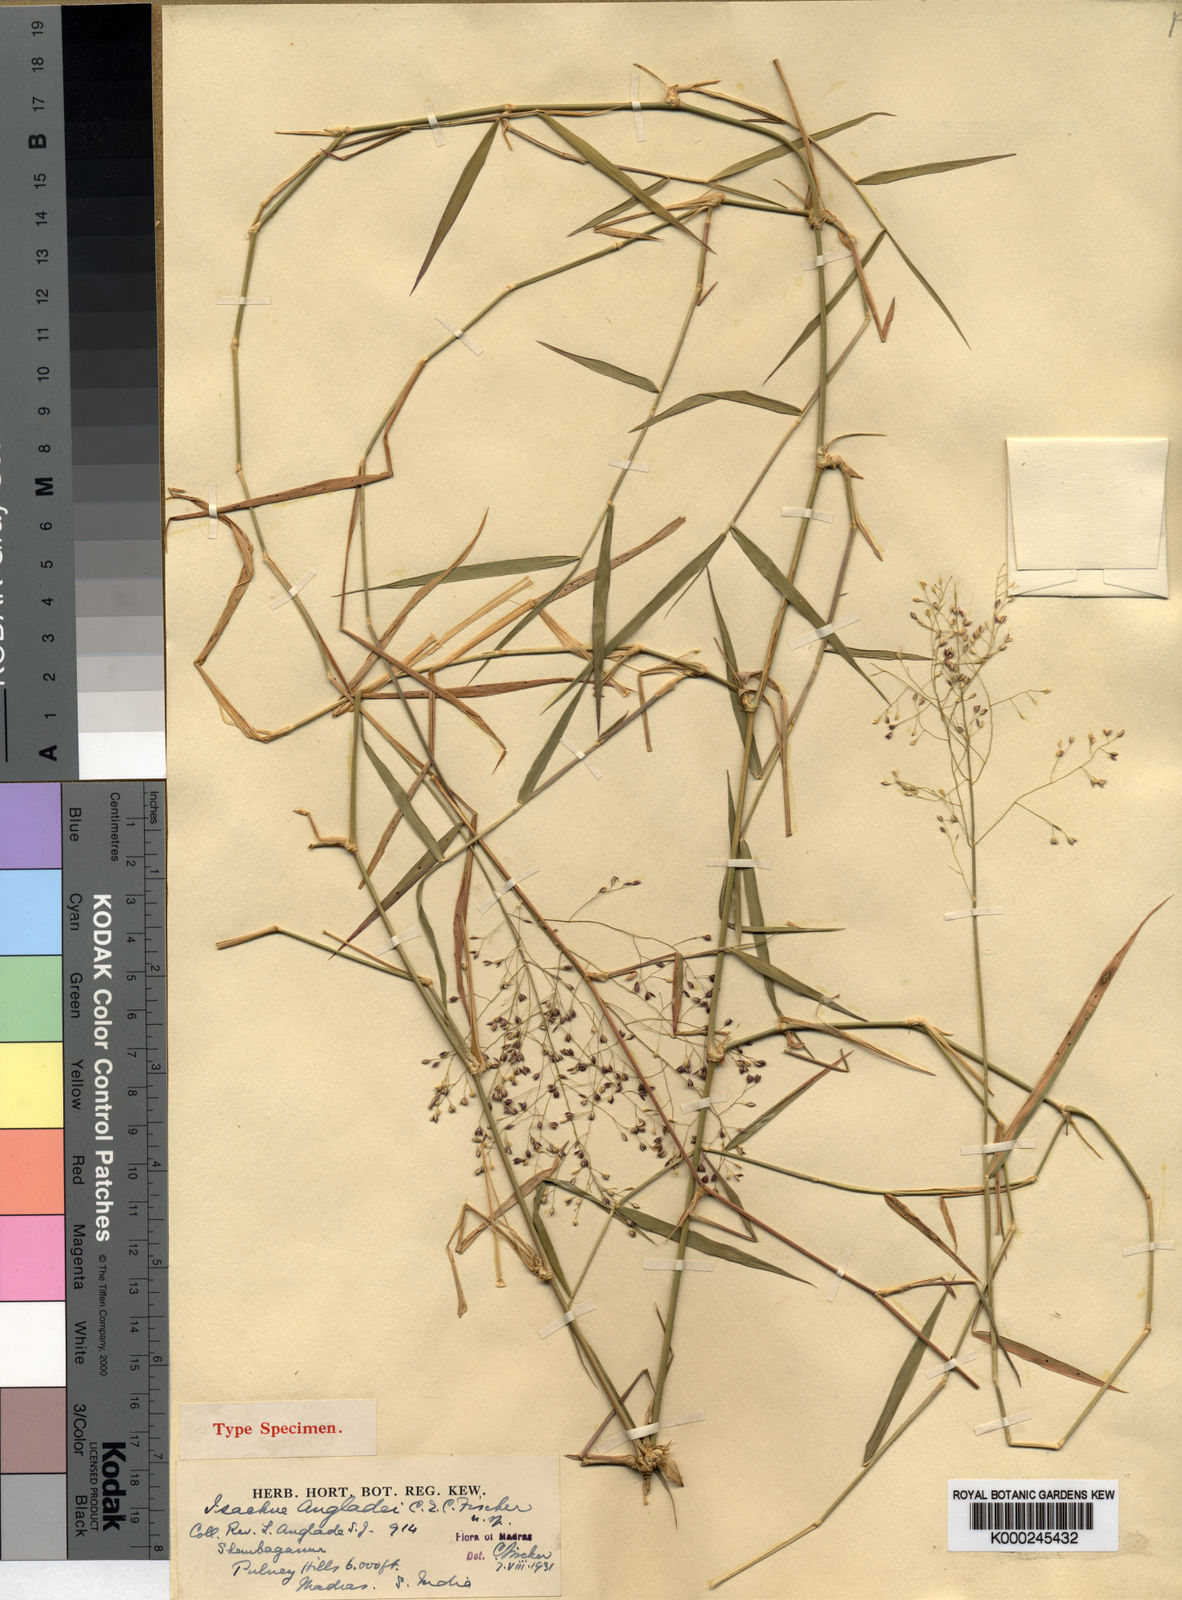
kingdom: Plantae
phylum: Tracheophyta
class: Liliopsida
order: Poales
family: Poaceae
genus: Isachne
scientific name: Isachne angladei
